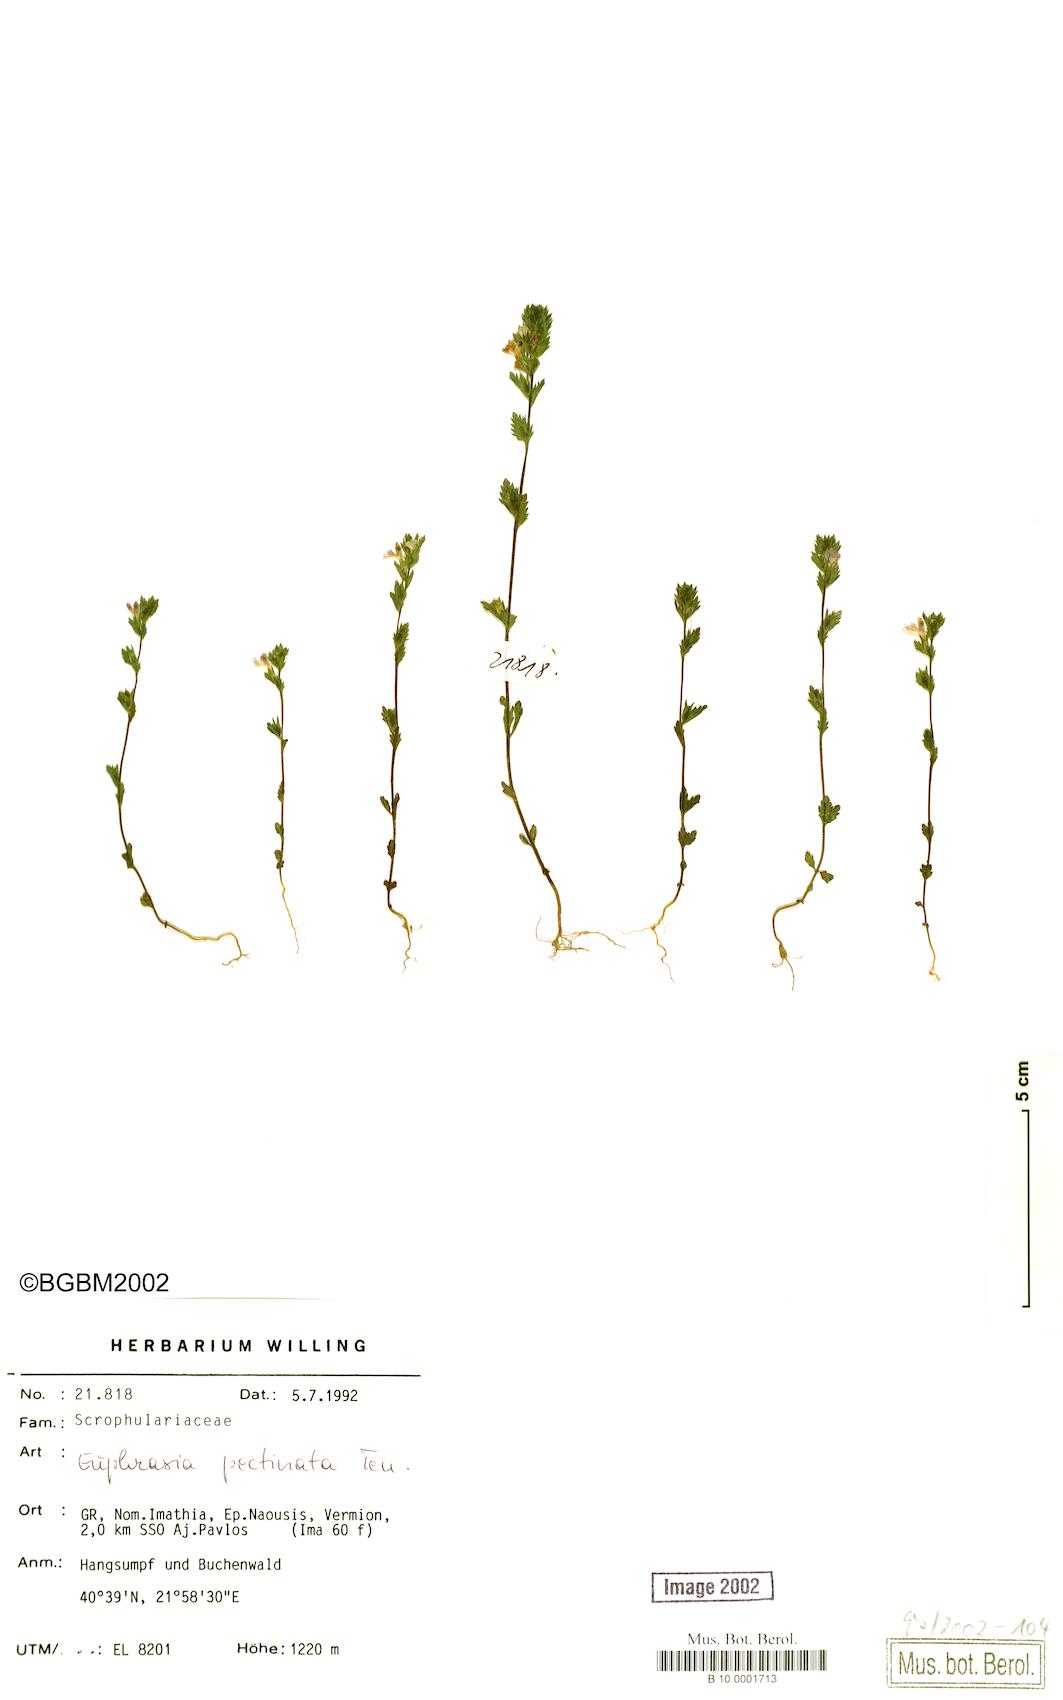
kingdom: Plantae
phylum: Tracheophyta
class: Magnoliopsida
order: Lamiales
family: Orobanchaceae
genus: Euphrasia
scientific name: Euphrasia pectinata
